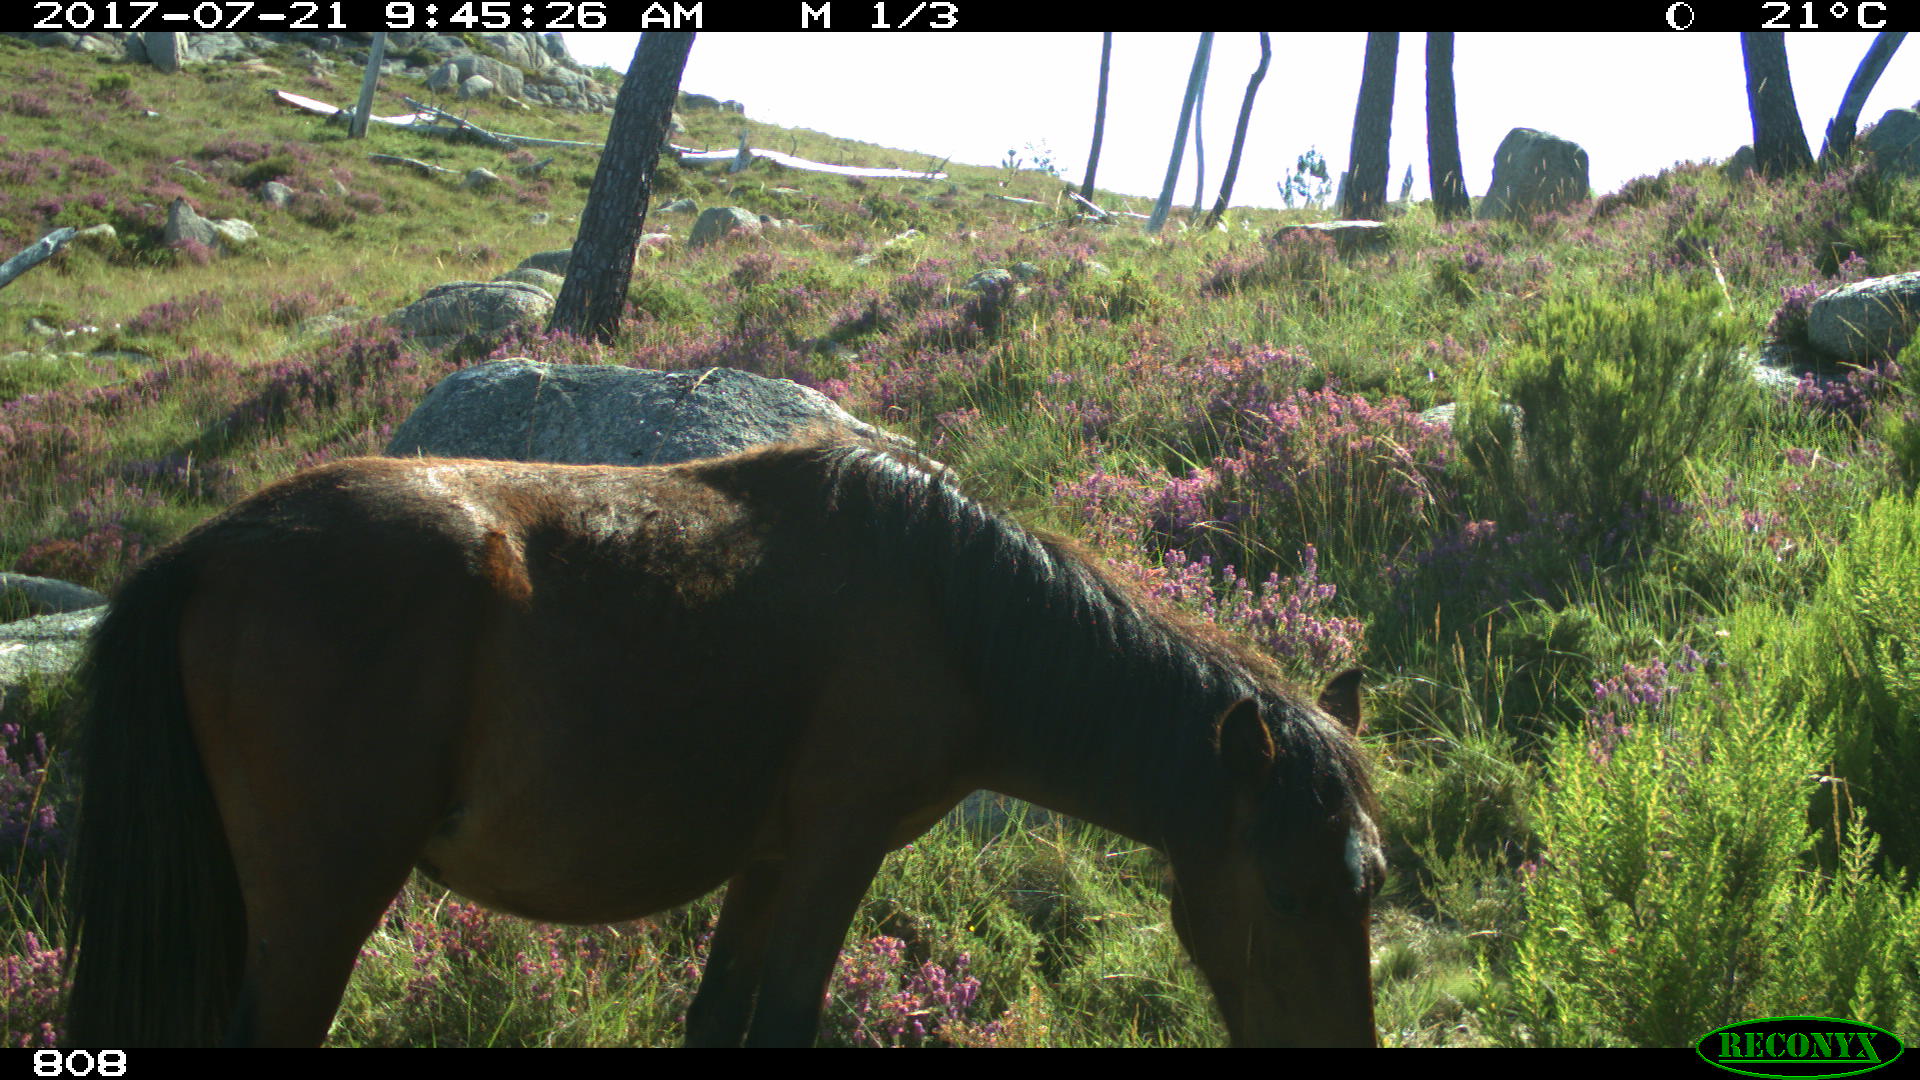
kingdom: Animalia
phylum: Chordata
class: Mammalia
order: Perissodactyla
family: Equidae
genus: Equus
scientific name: Equus caballus
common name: Horse
